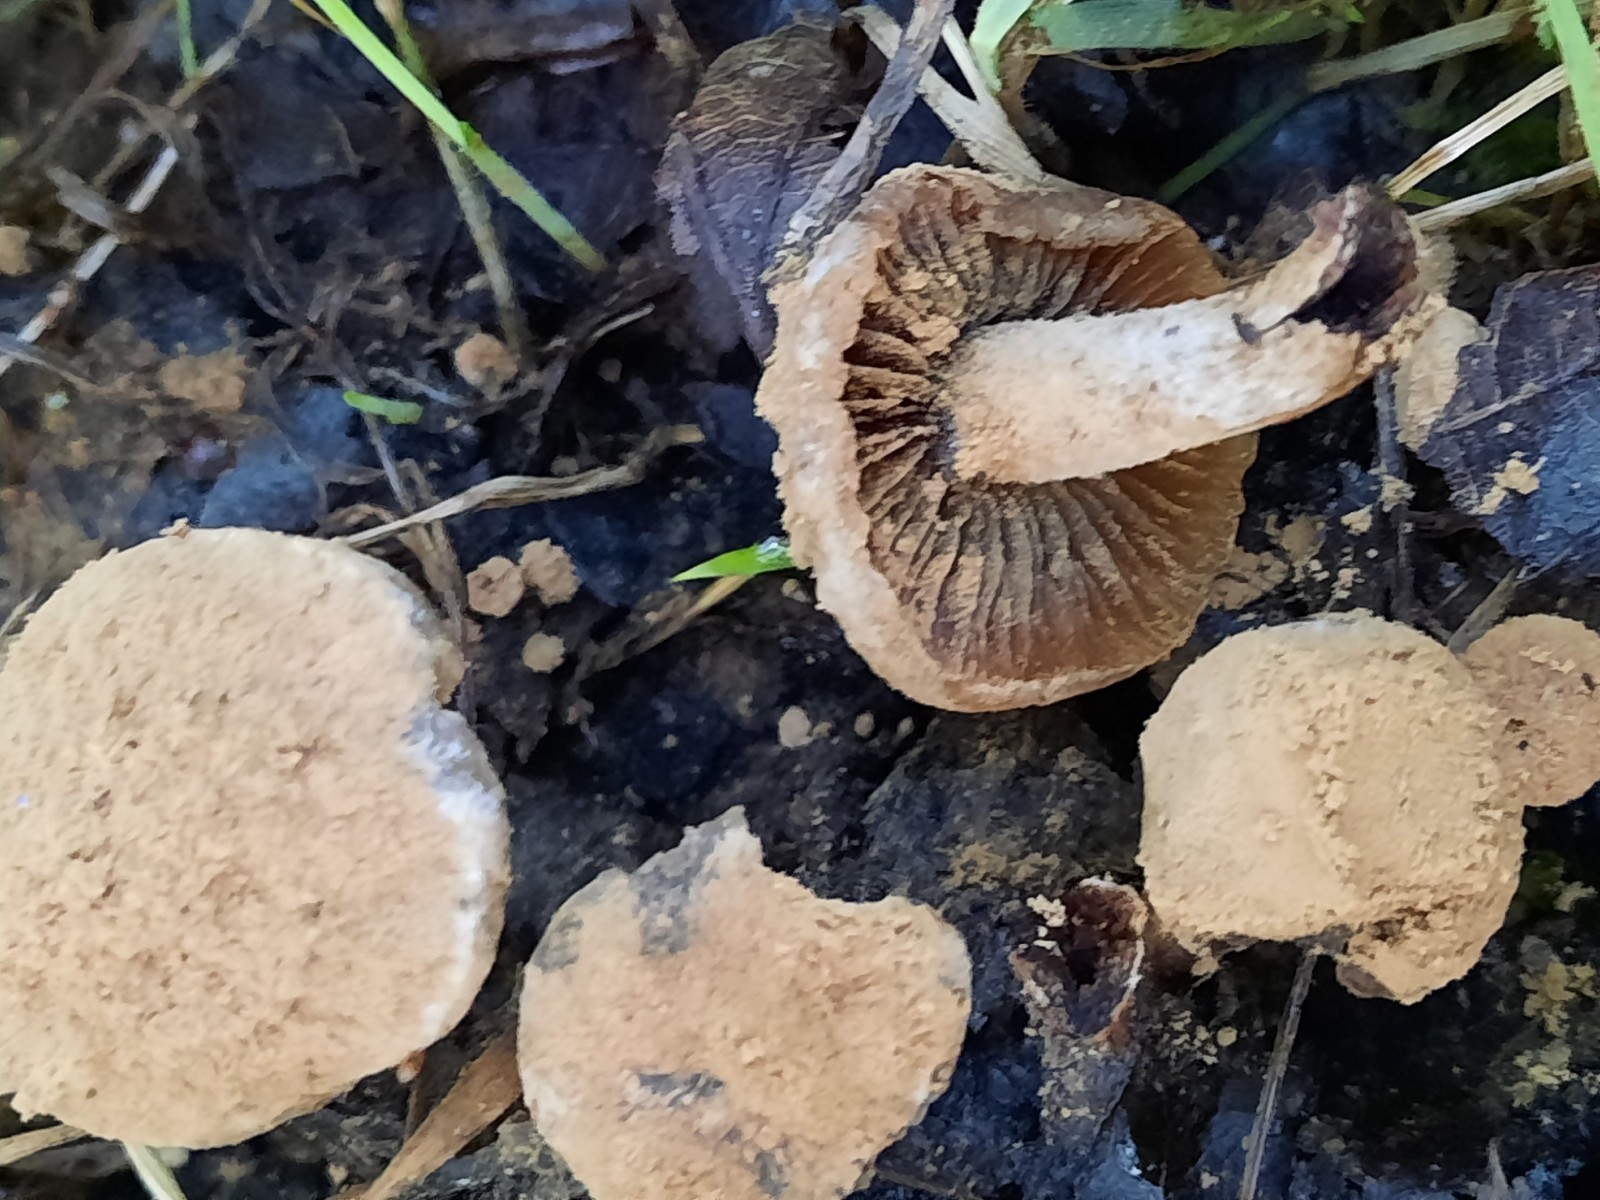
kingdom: Fungi
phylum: Basidiomycota
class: Agaricomycetes
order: Agaricales
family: Lyophyllaceae
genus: Asterophora
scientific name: Asterophora lycoperdoides
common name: brunpudret snyltehat
